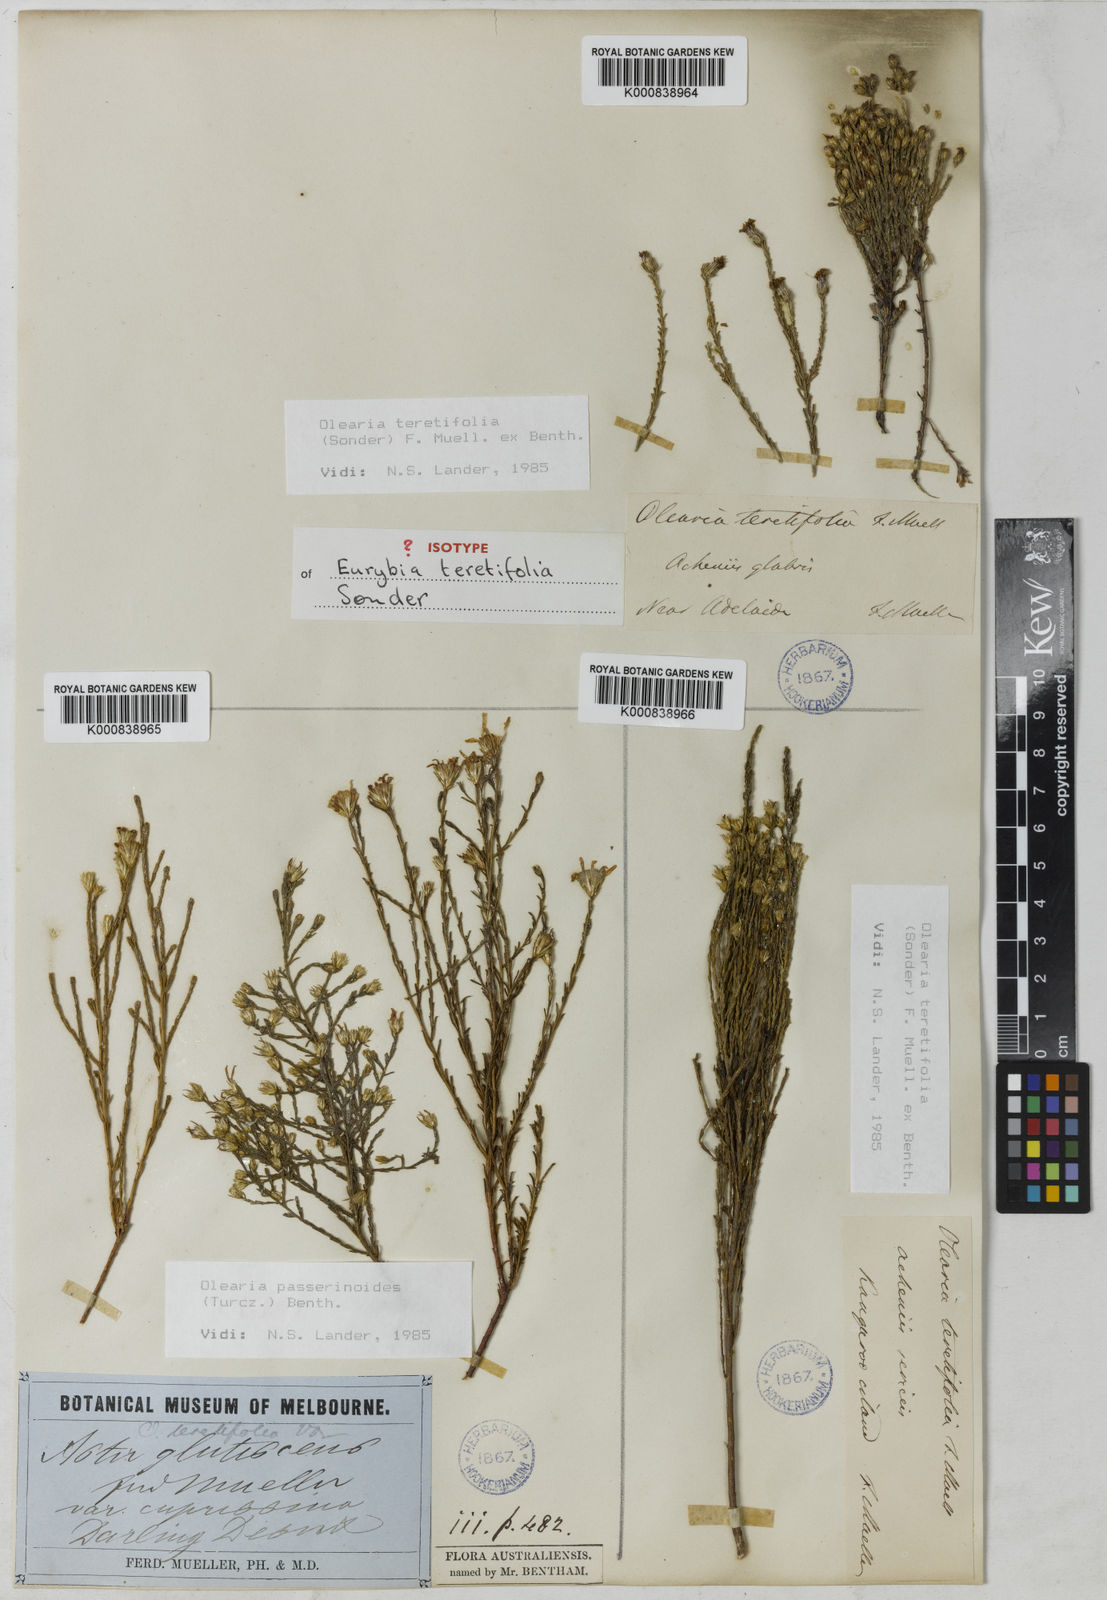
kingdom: Plantae
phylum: Tracheophyta
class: Magnoliopsida
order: Asterales
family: Asteraceae
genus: Olearia
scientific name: Olearia
